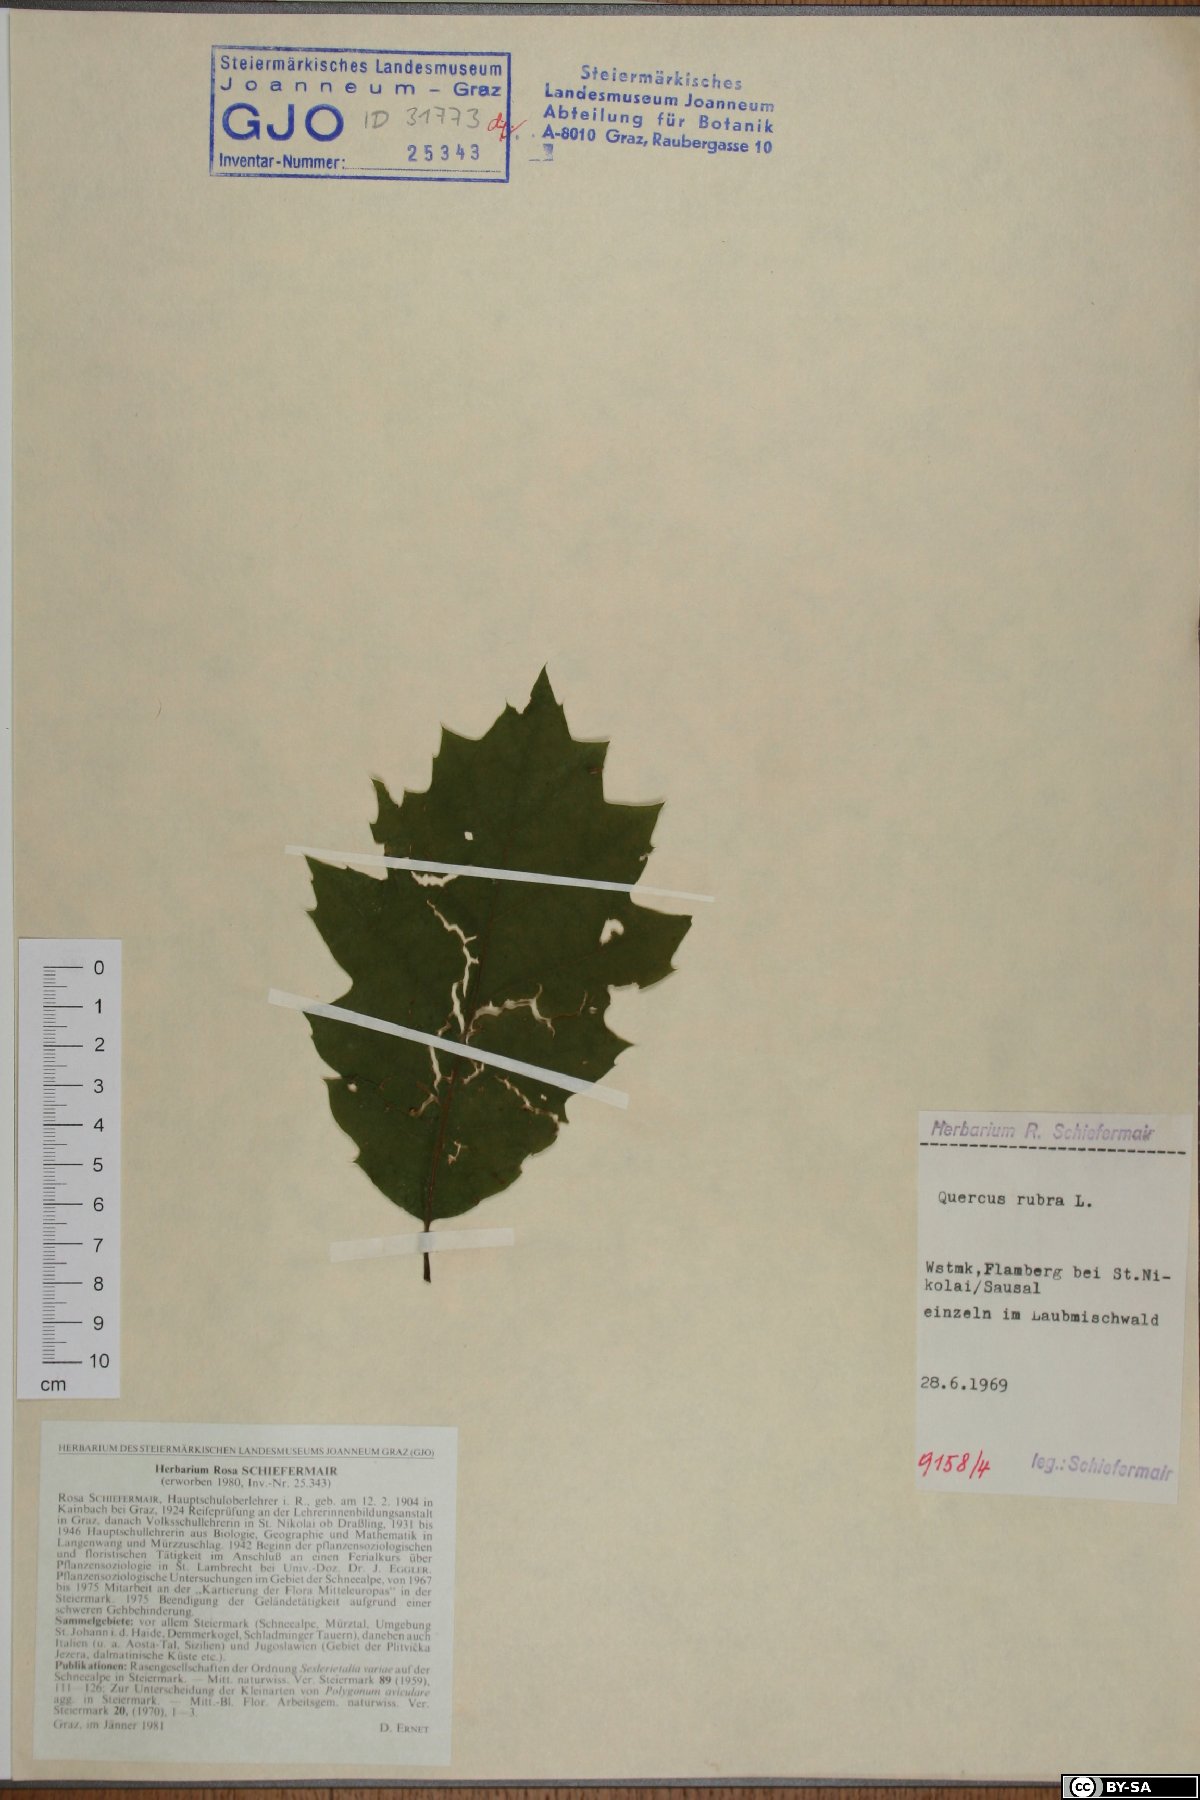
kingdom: Plantae
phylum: Tracheophyta
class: Magnoliopsida
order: Fagales
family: Fagaceae
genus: Quercus
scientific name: Quercus rubra
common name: Red oak
